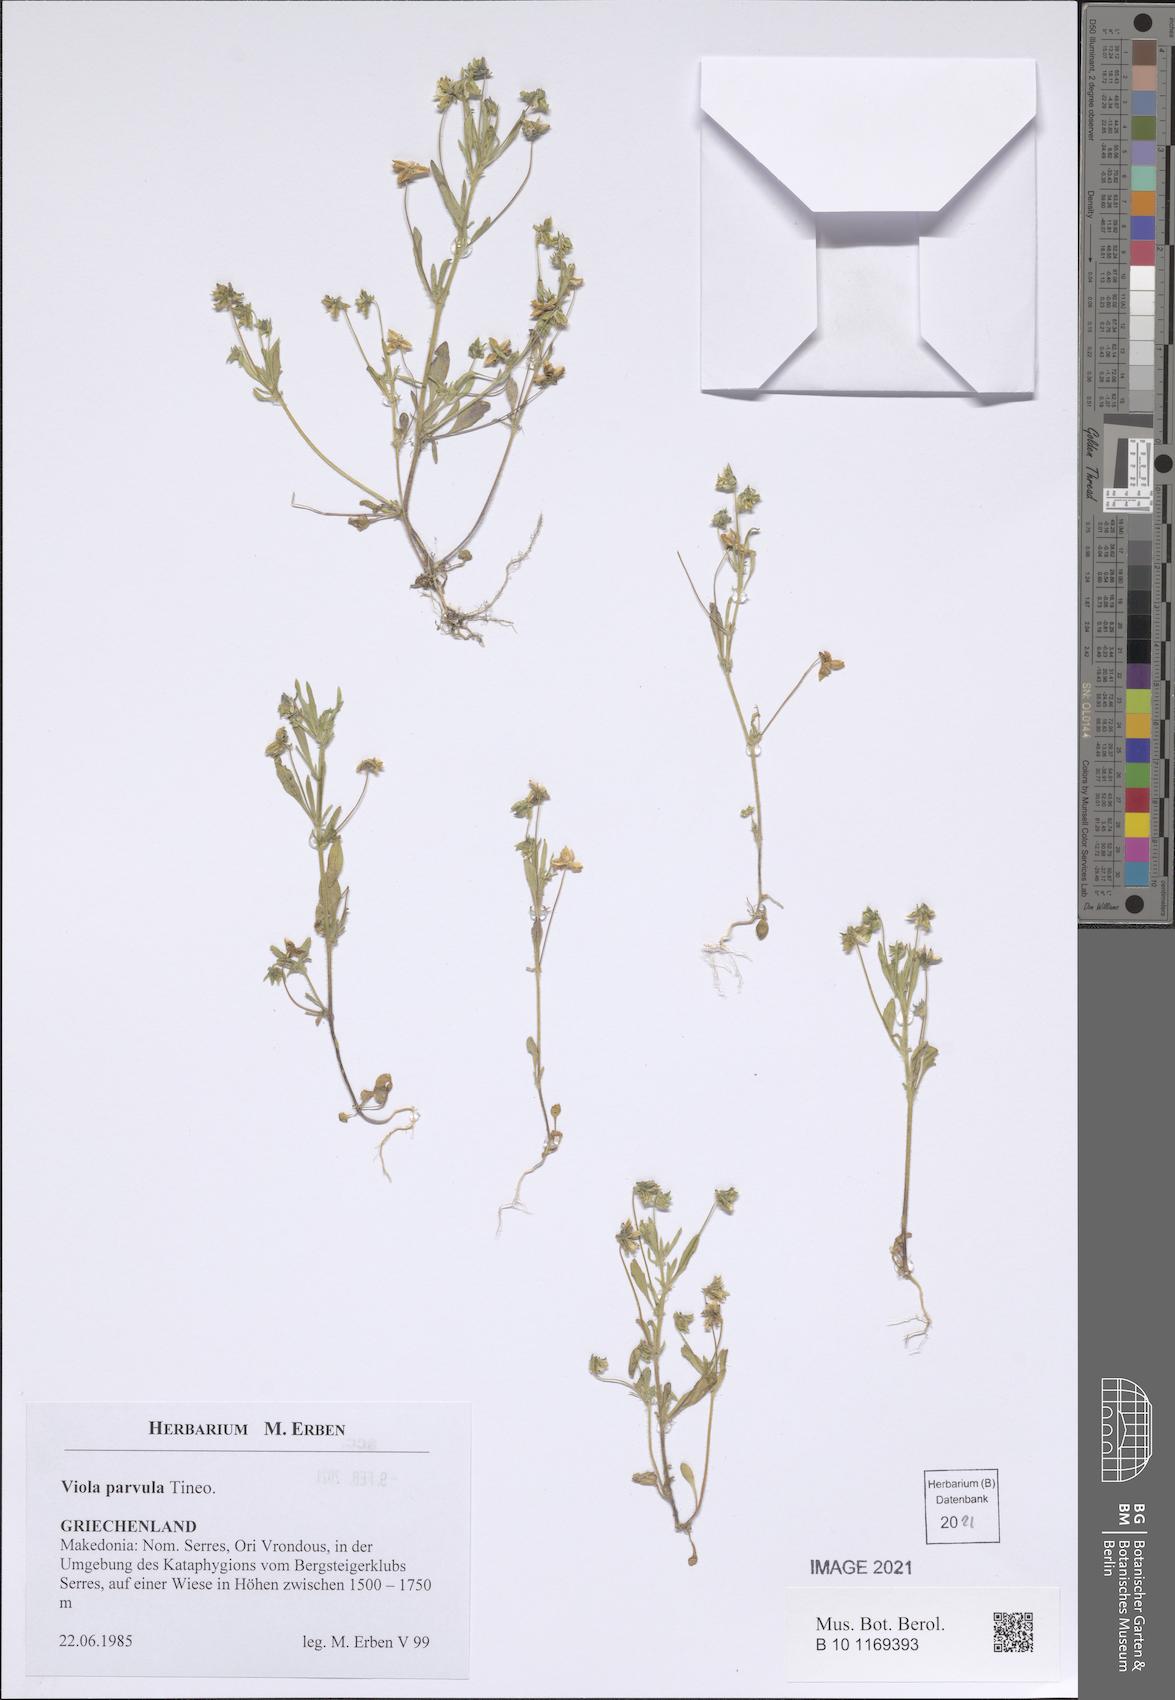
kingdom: Plantae
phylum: Tracheophyta
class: Magnoliopsida
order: Malpighiales
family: Violaceae
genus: Viola
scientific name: Viola parvula
